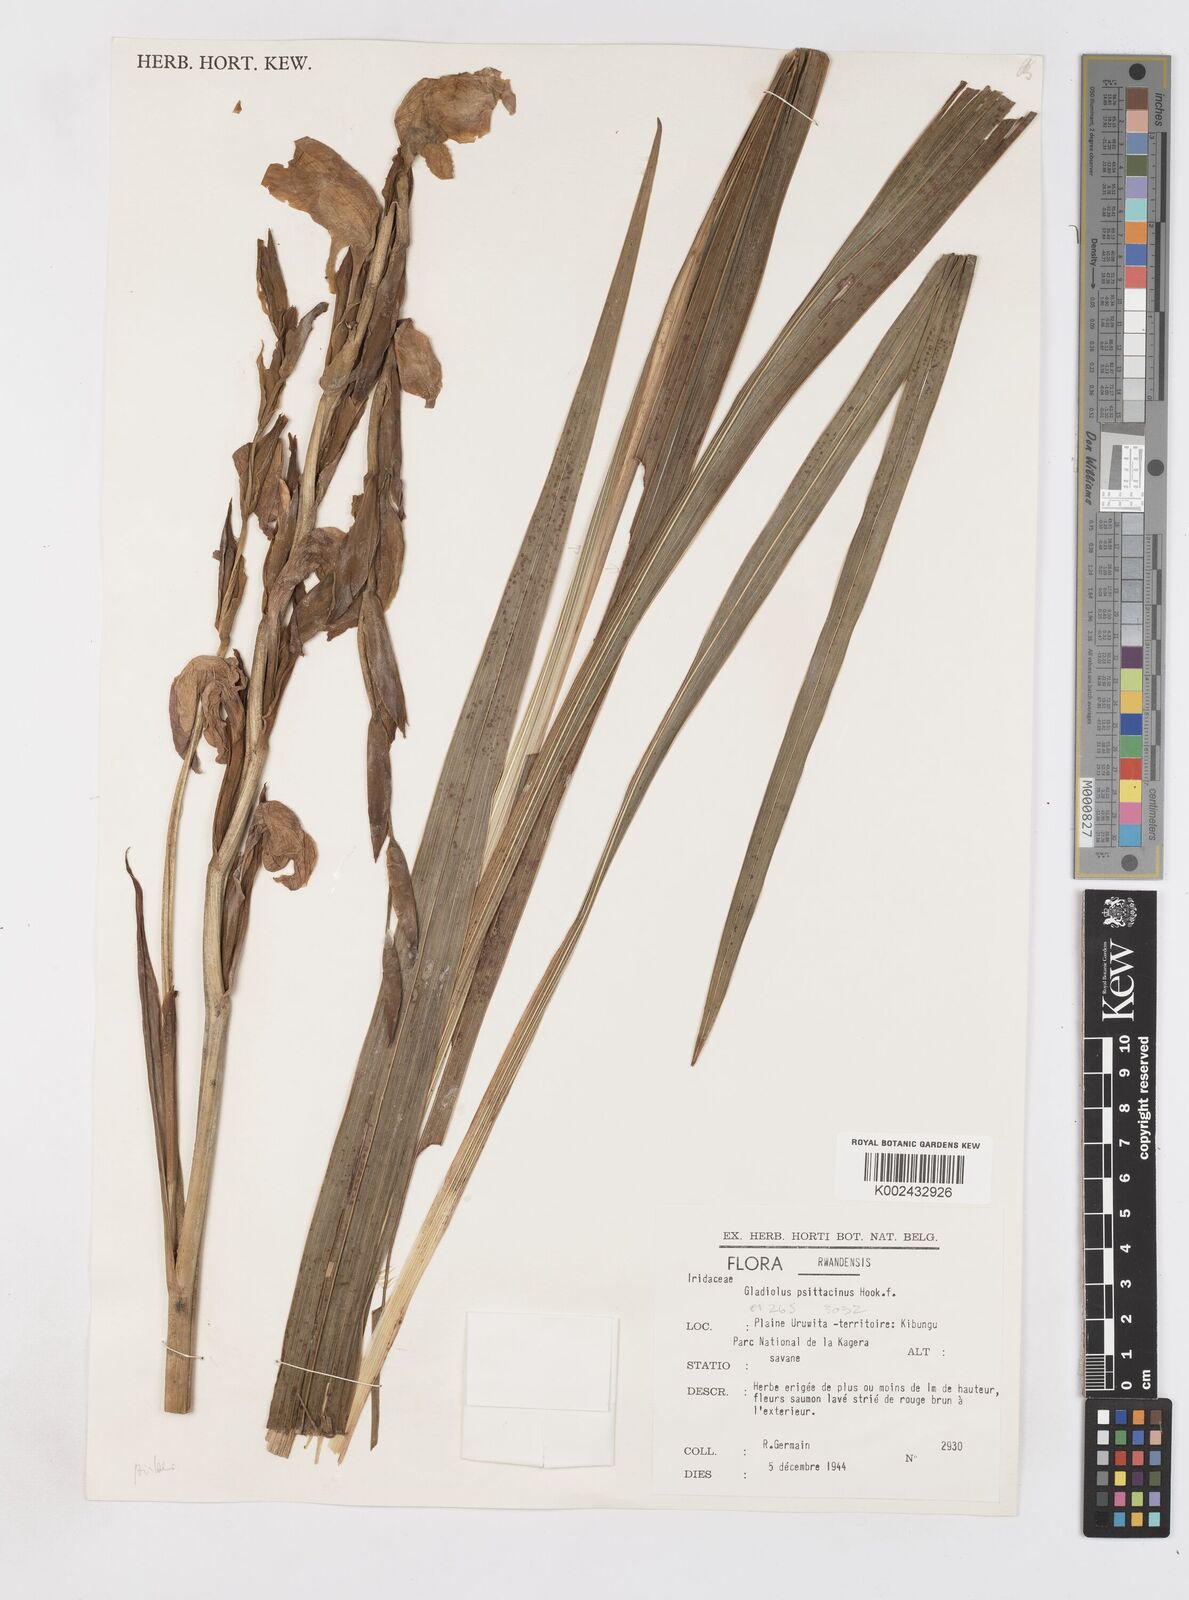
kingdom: Plantae
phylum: Tracheophyta
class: Liliopsida
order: Asparagales
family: Iridaceae
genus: Gladiolus
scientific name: Gladiolus dalenii
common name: Cornflag
